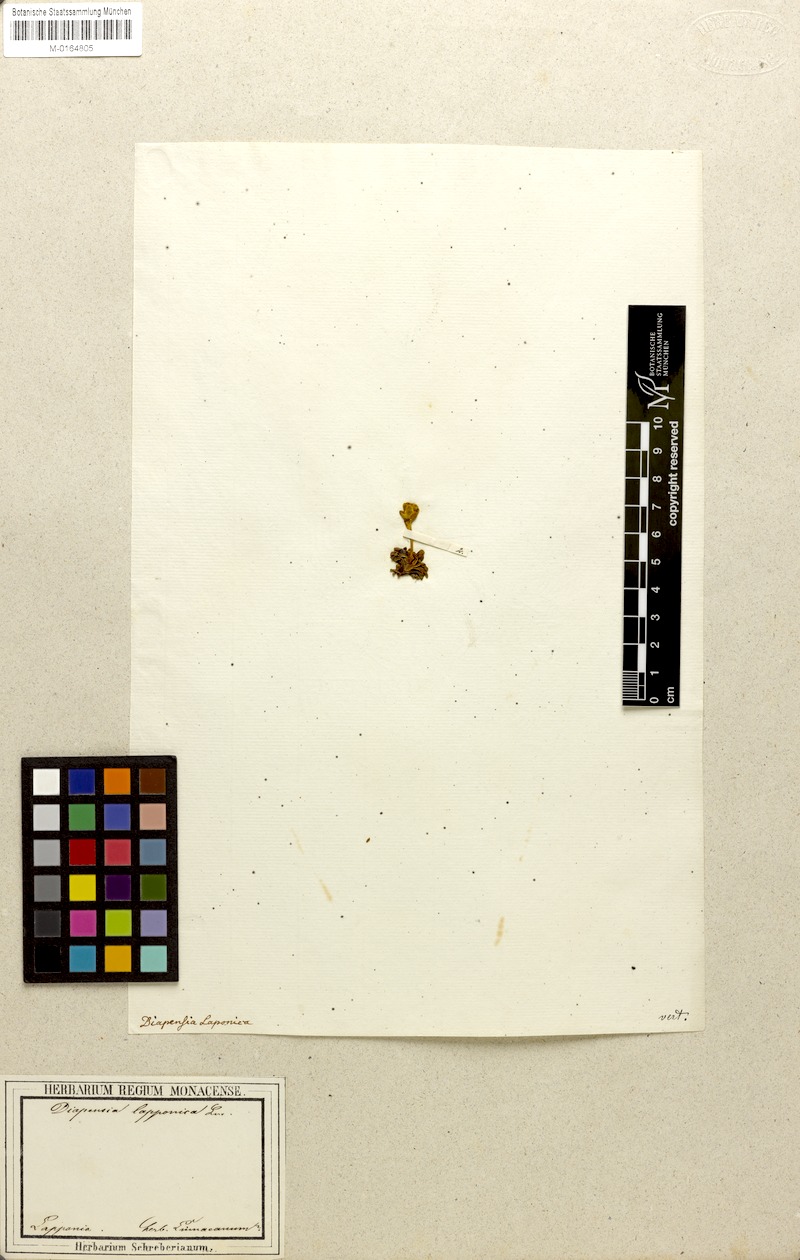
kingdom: Plantae
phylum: Tracheophyta
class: Magnoliopsida
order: Ericales
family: Diapensiaceae
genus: Diapensia
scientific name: Diapensia lapponica
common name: Diapensia
